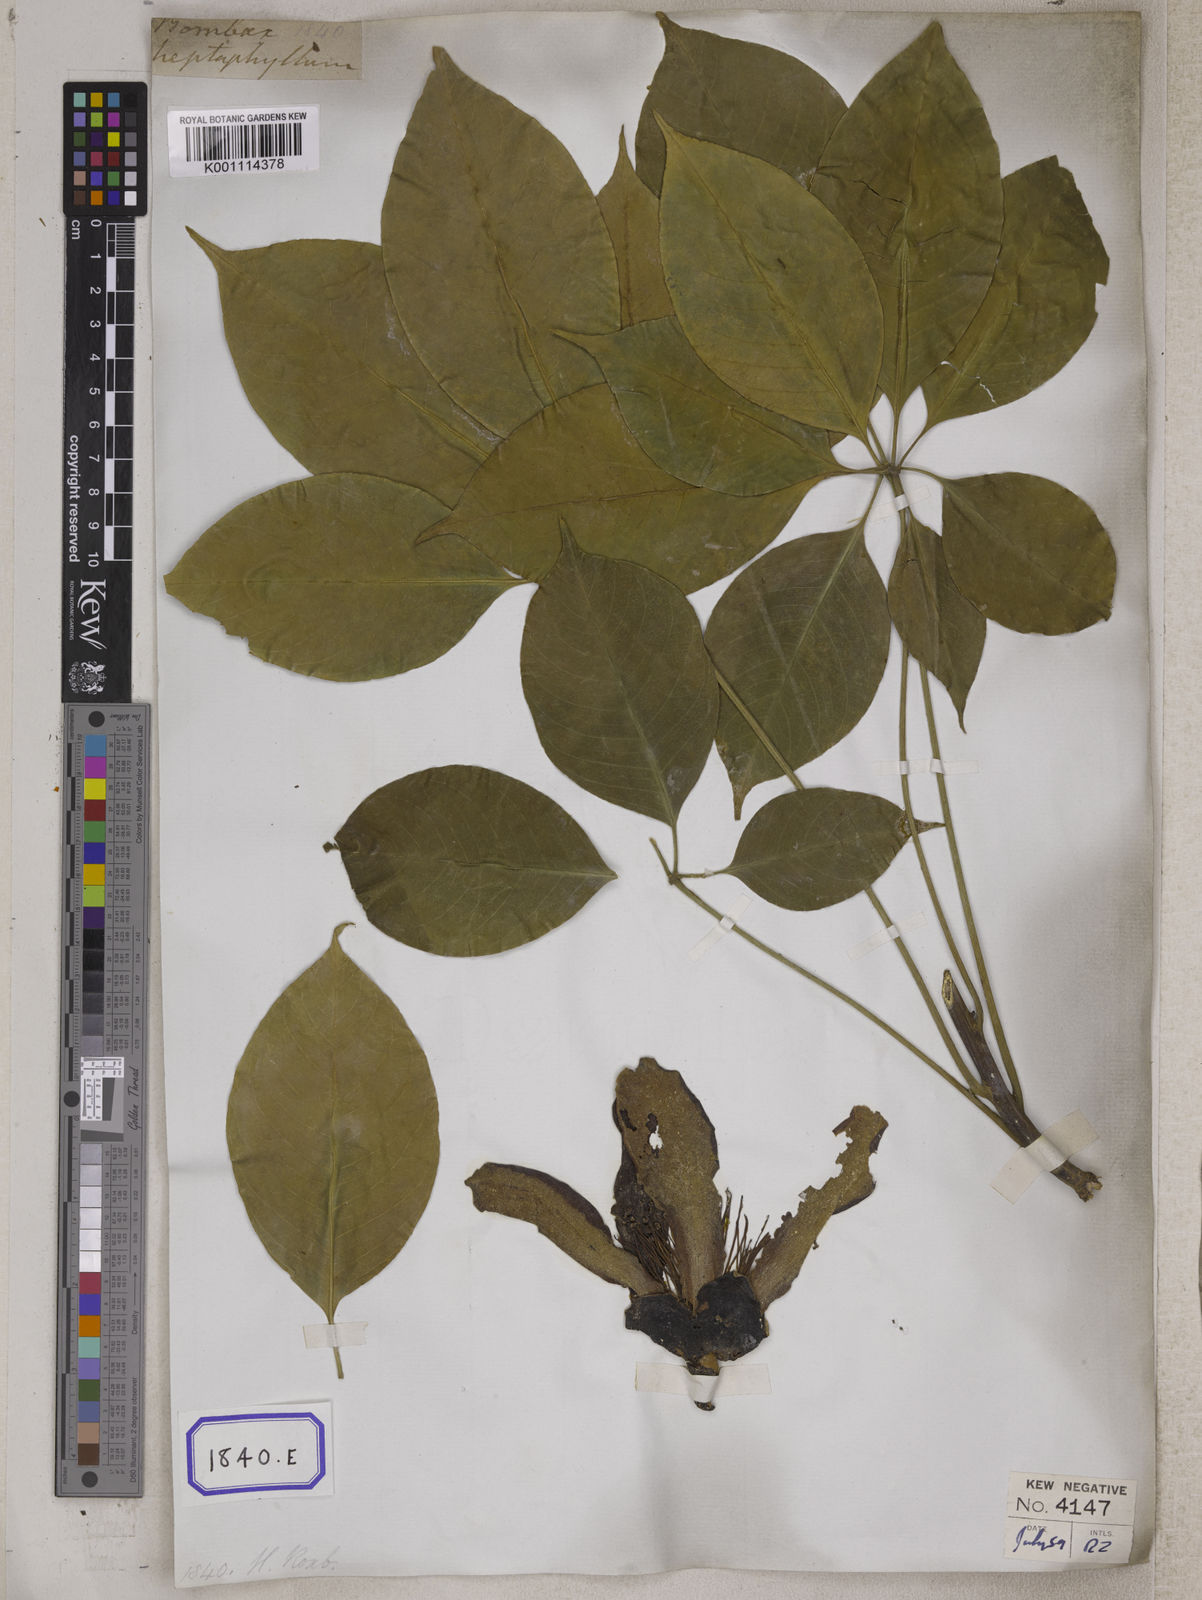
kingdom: Plantae
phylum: Tracheophyta
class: Magnoliopsida
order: Malvales
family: Malvaceae
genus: Bombax
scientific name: Bombax ceiba
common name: Northern-cottonwood
